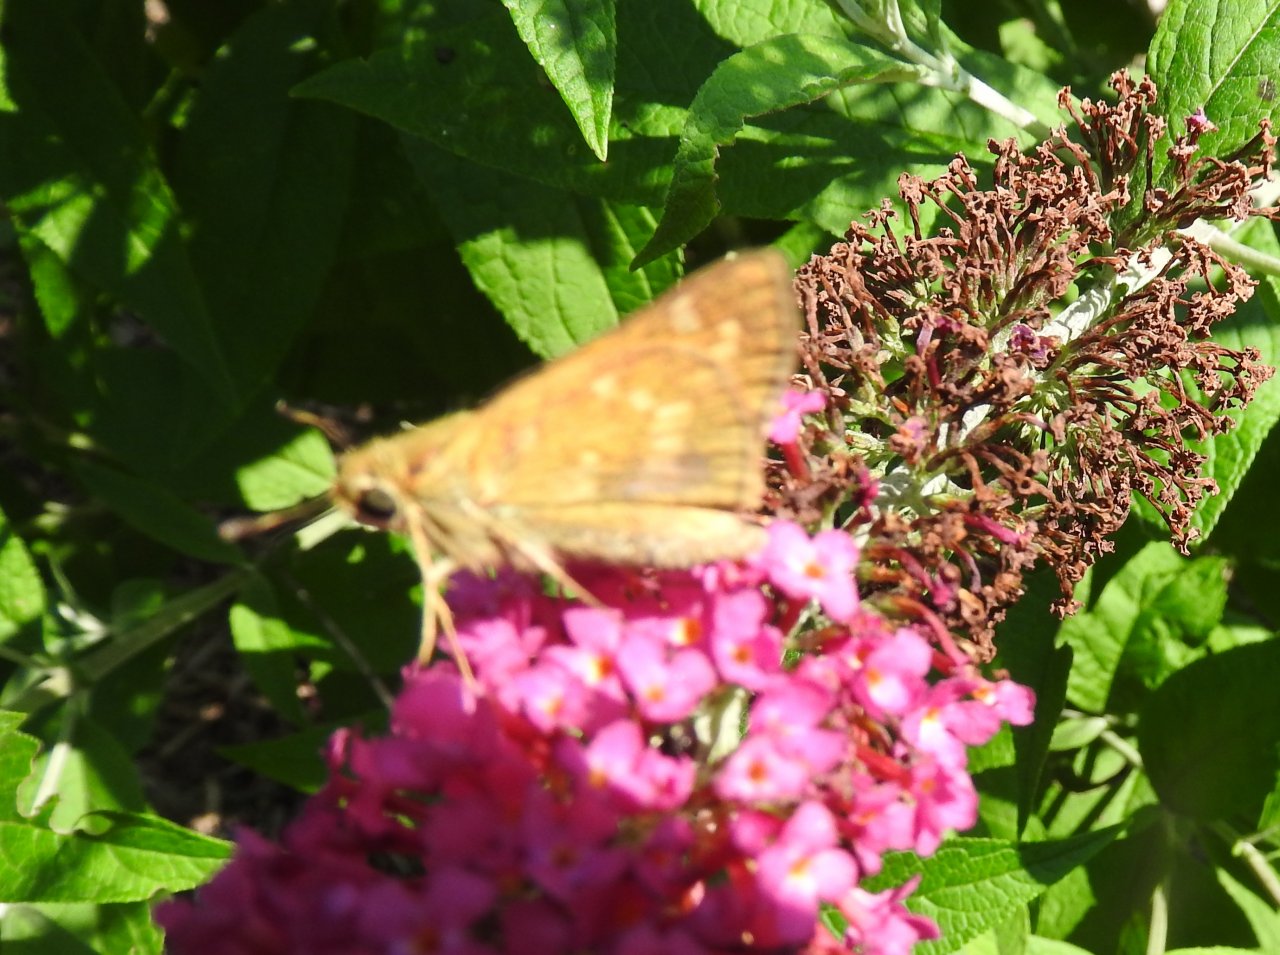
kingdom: Animalia
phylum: Arthropoda
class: Insecta
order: Lepidoptera
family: Hesperiidae
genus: Atalopedes
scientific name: Atalopedes campestris
